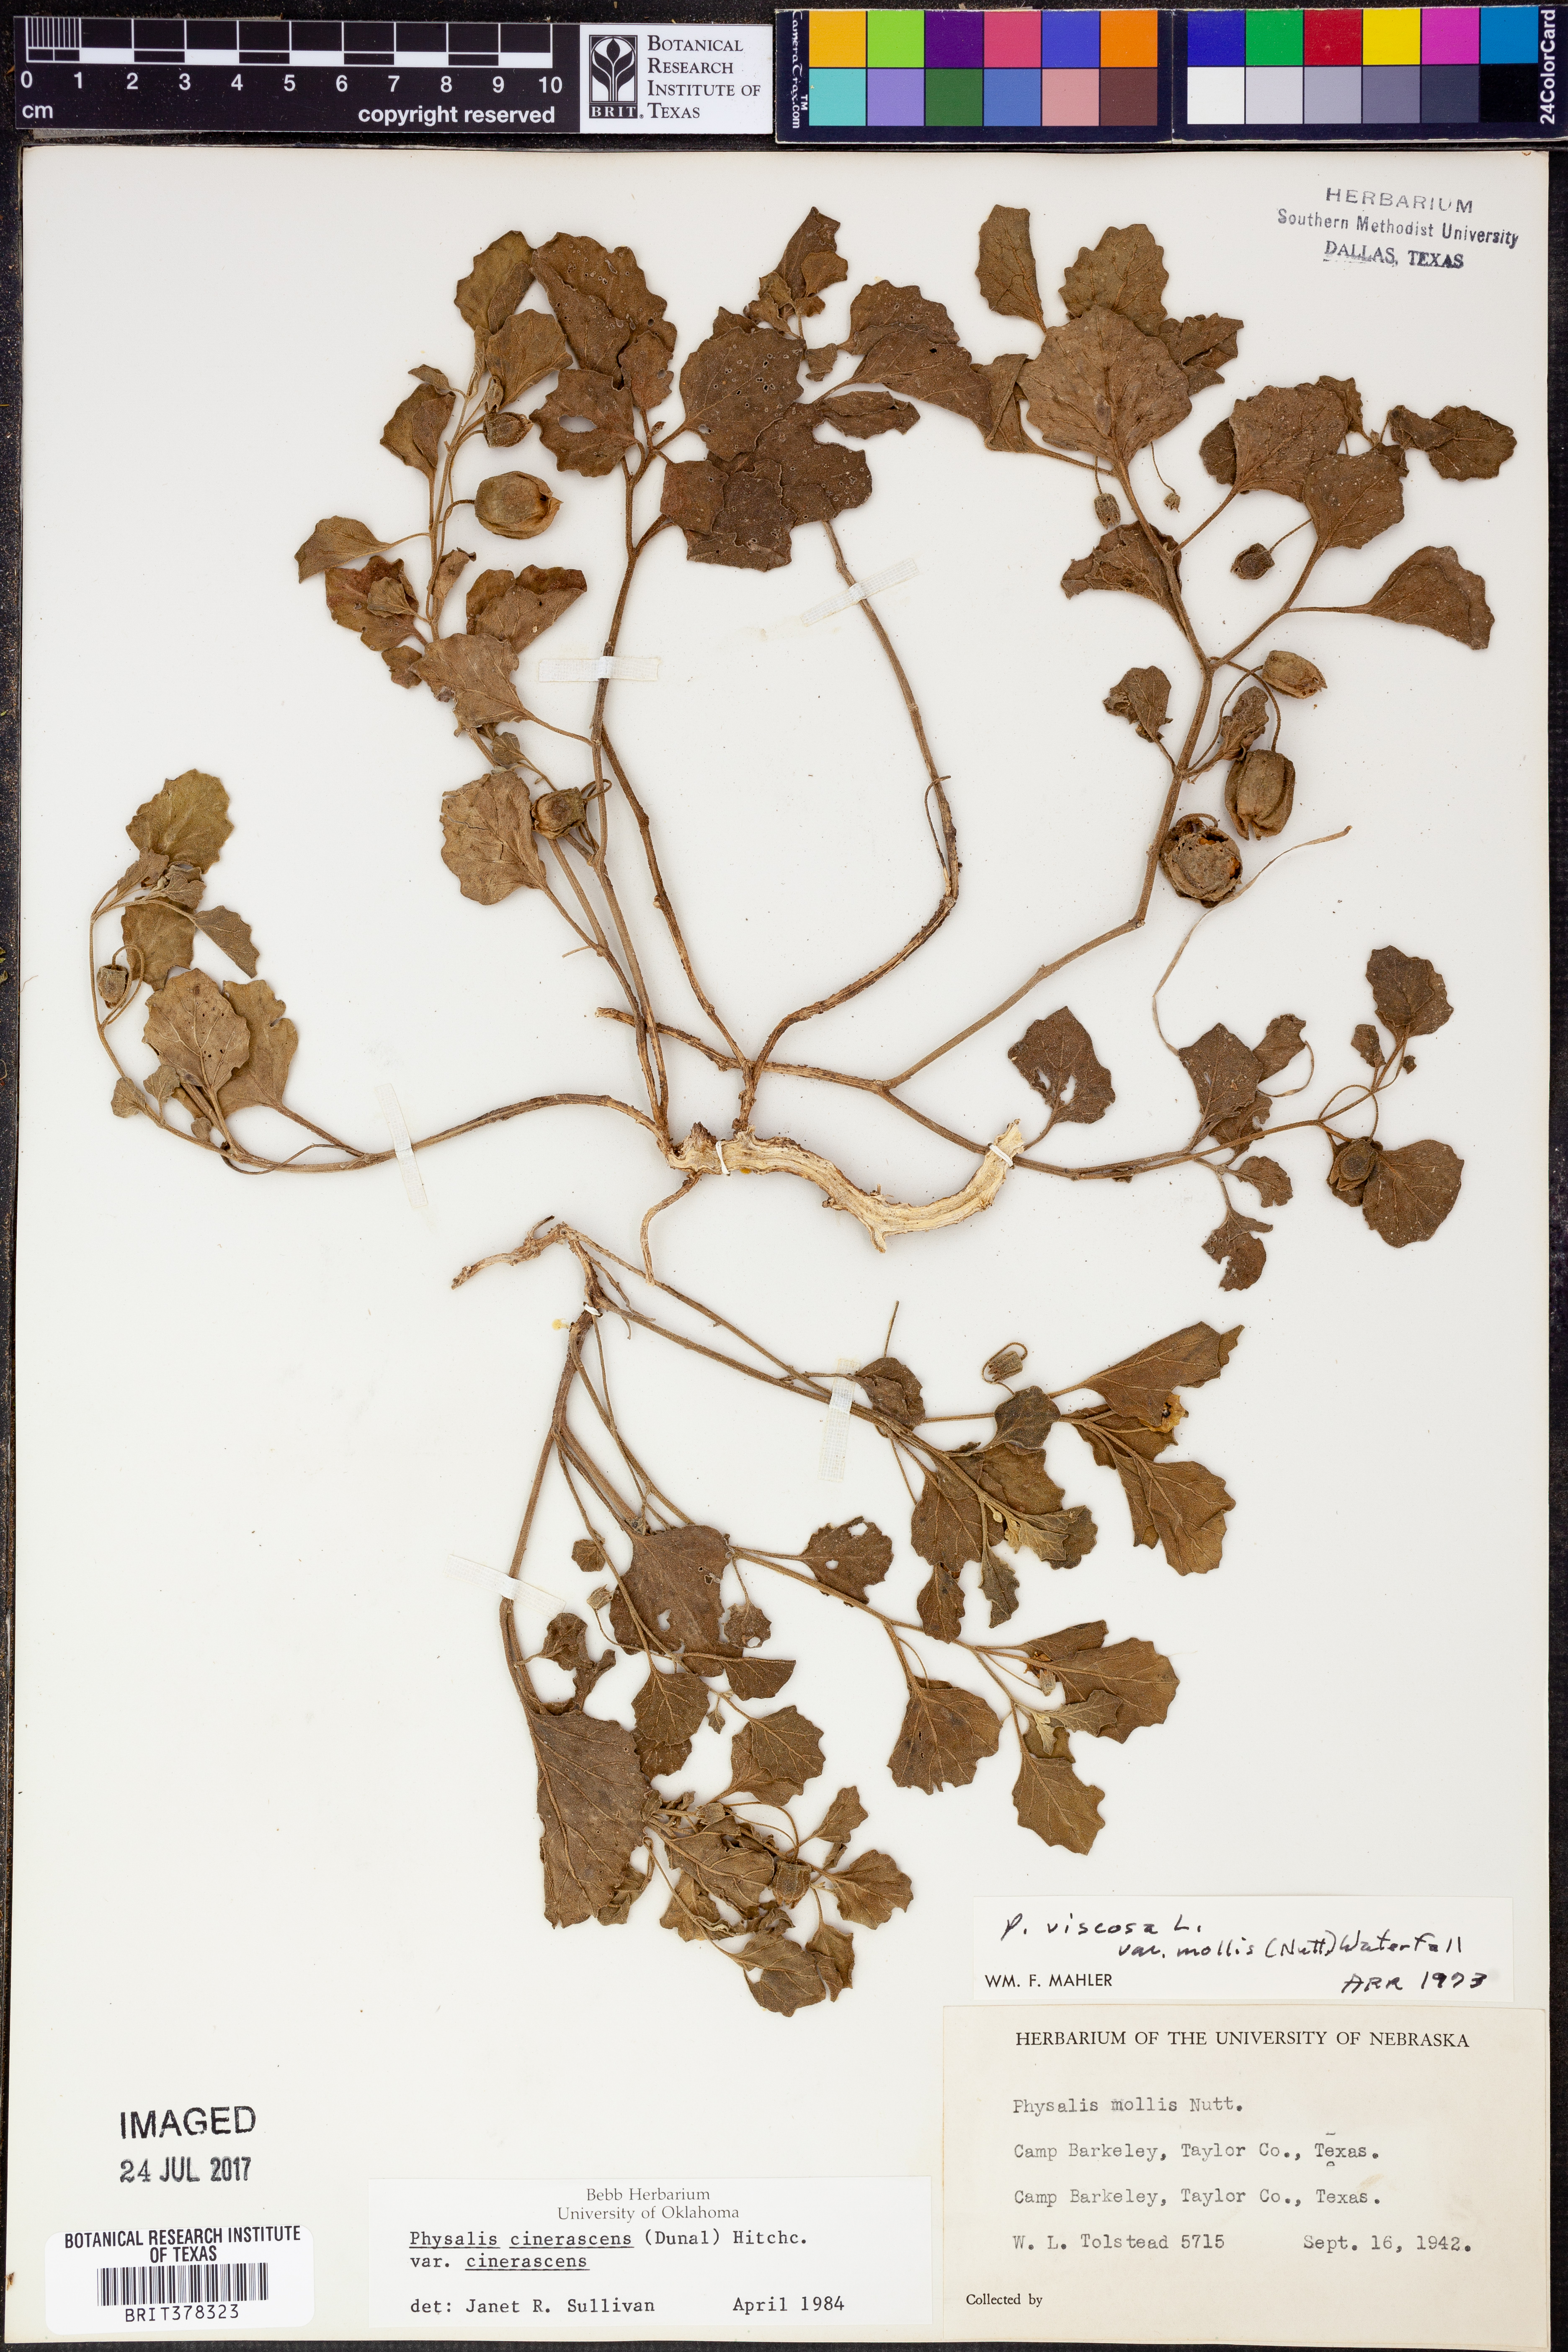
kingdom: Plantae
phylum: Tracheophyta
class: Magnoliopsida
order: Solanales
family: Solanaceae
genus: Physalis
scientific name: Physalis
